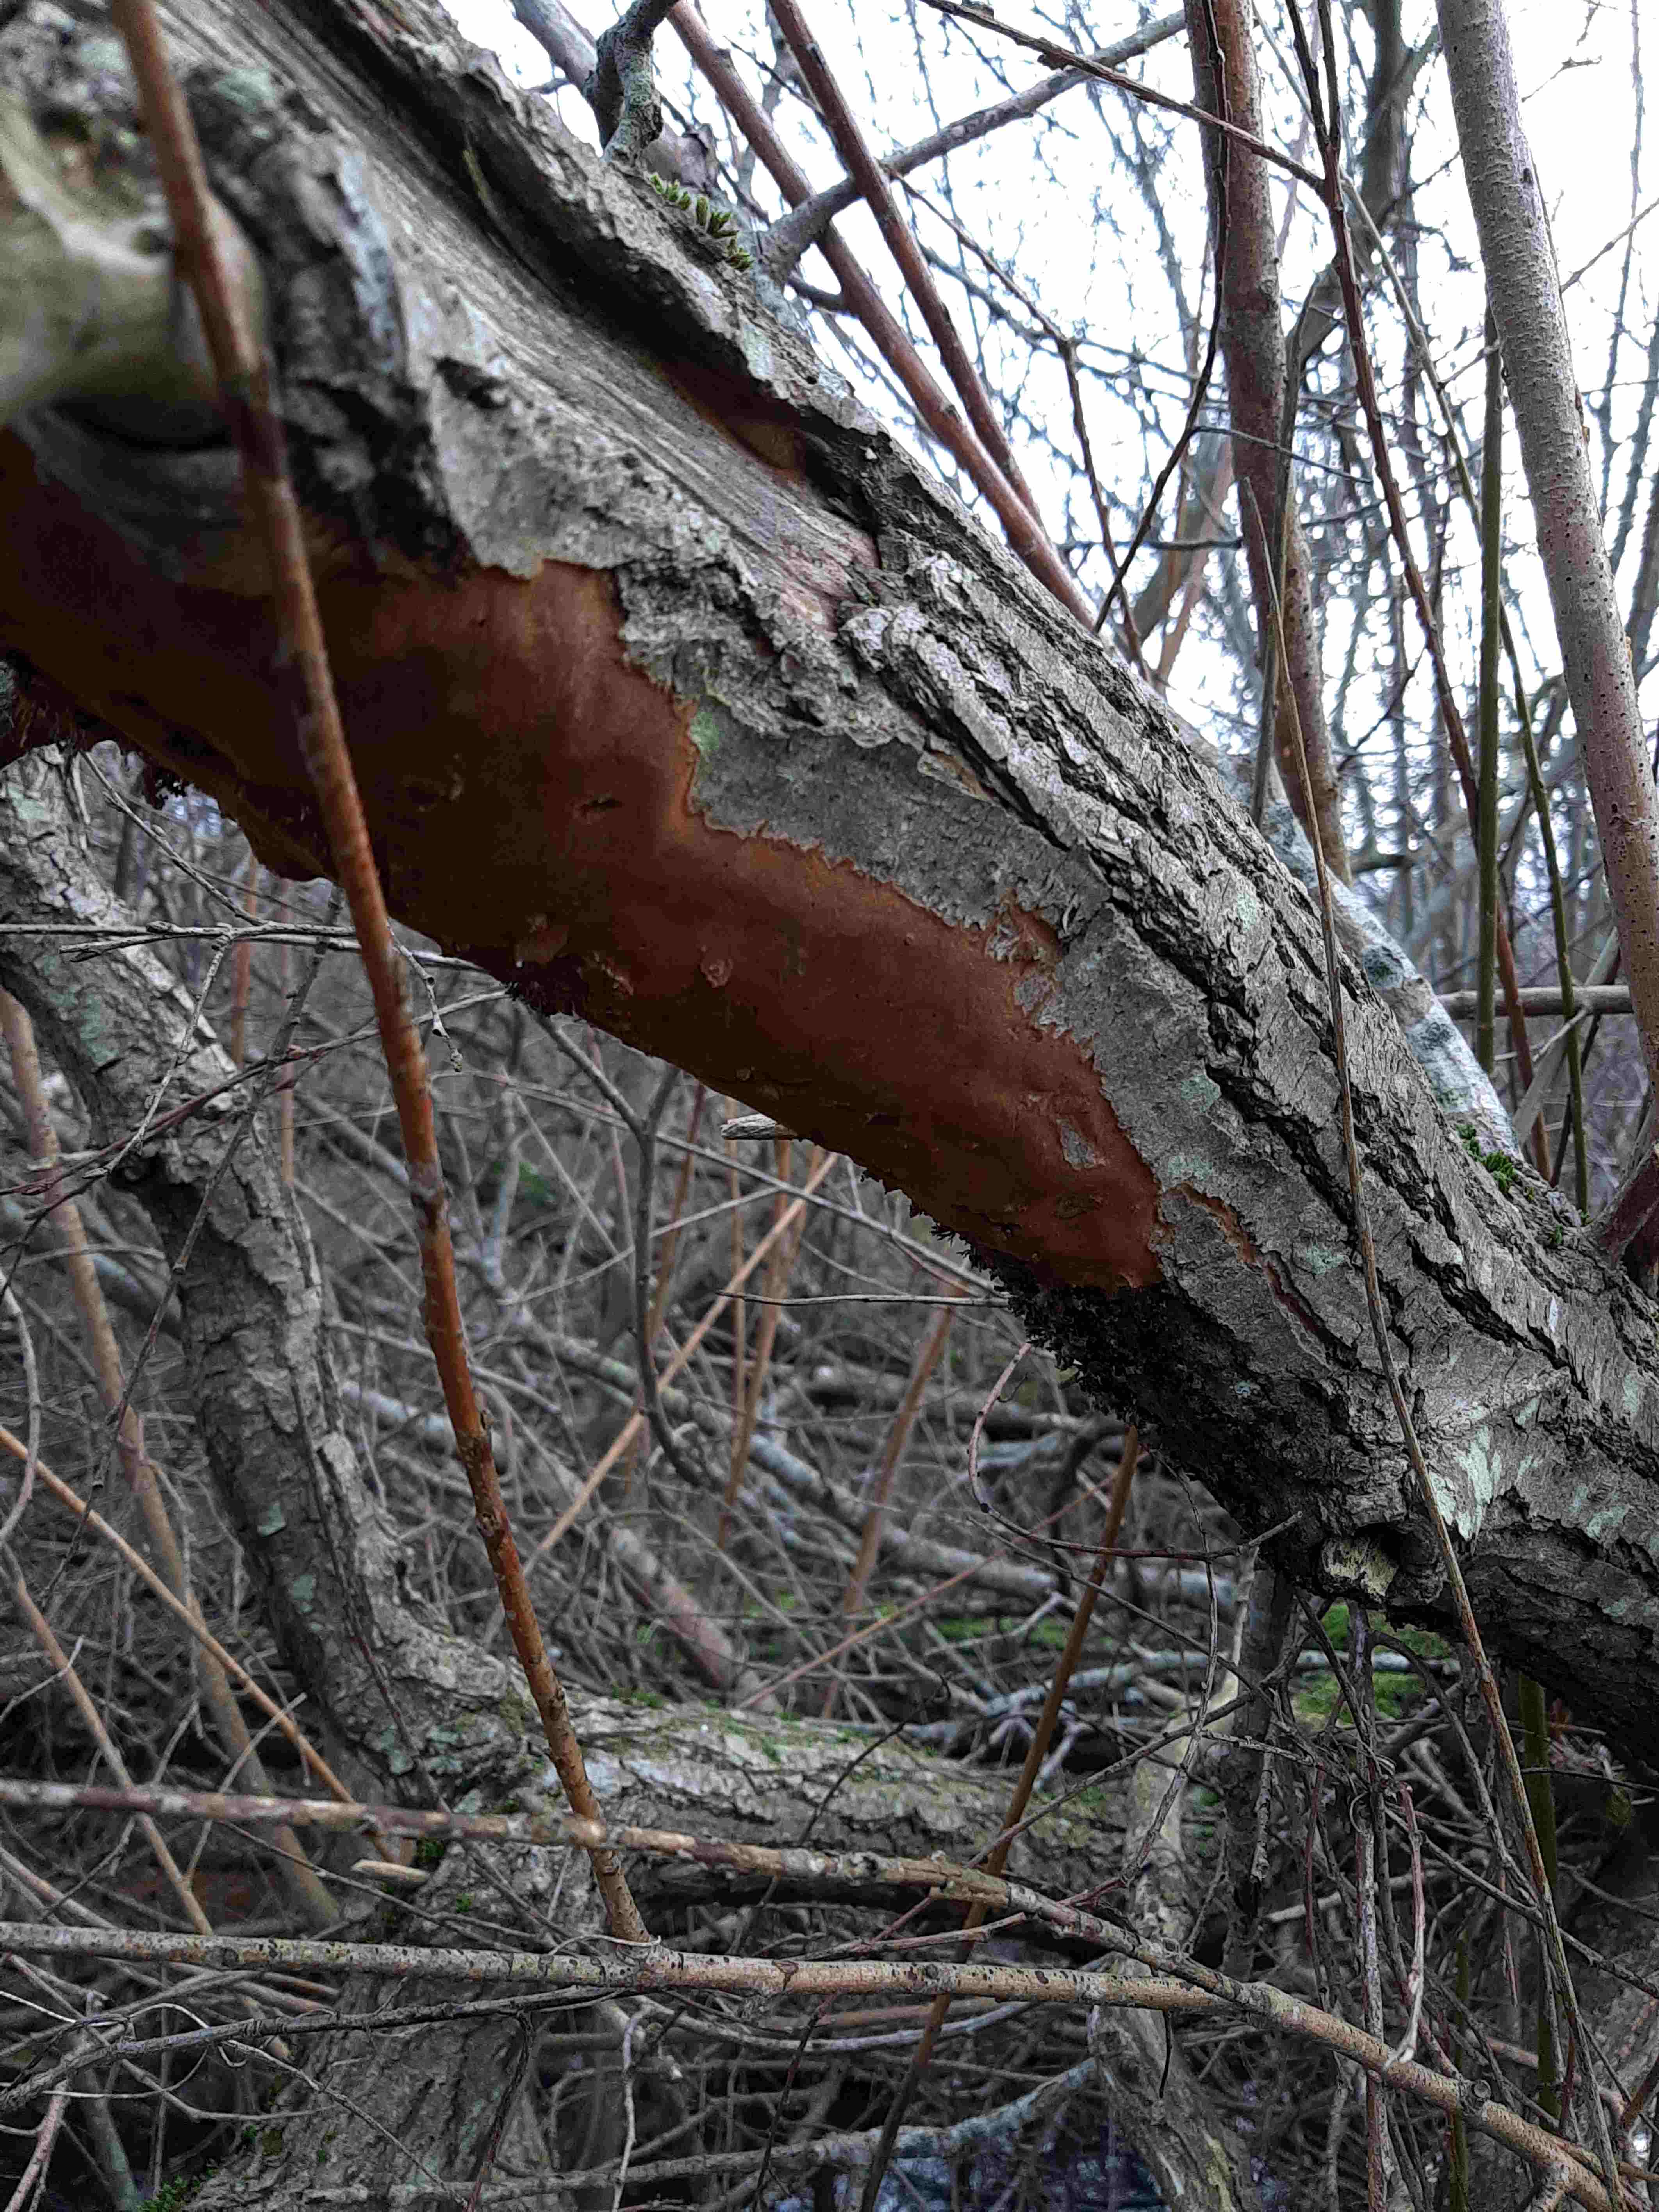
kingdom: Fungi
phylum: Basidiomycota
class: Agaricomycetes
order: Hymenochaetales
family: Hymenochaetaceae
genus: Fomitiporia
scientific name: Fomitiporia punctata
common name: pude-ildporesvamp
